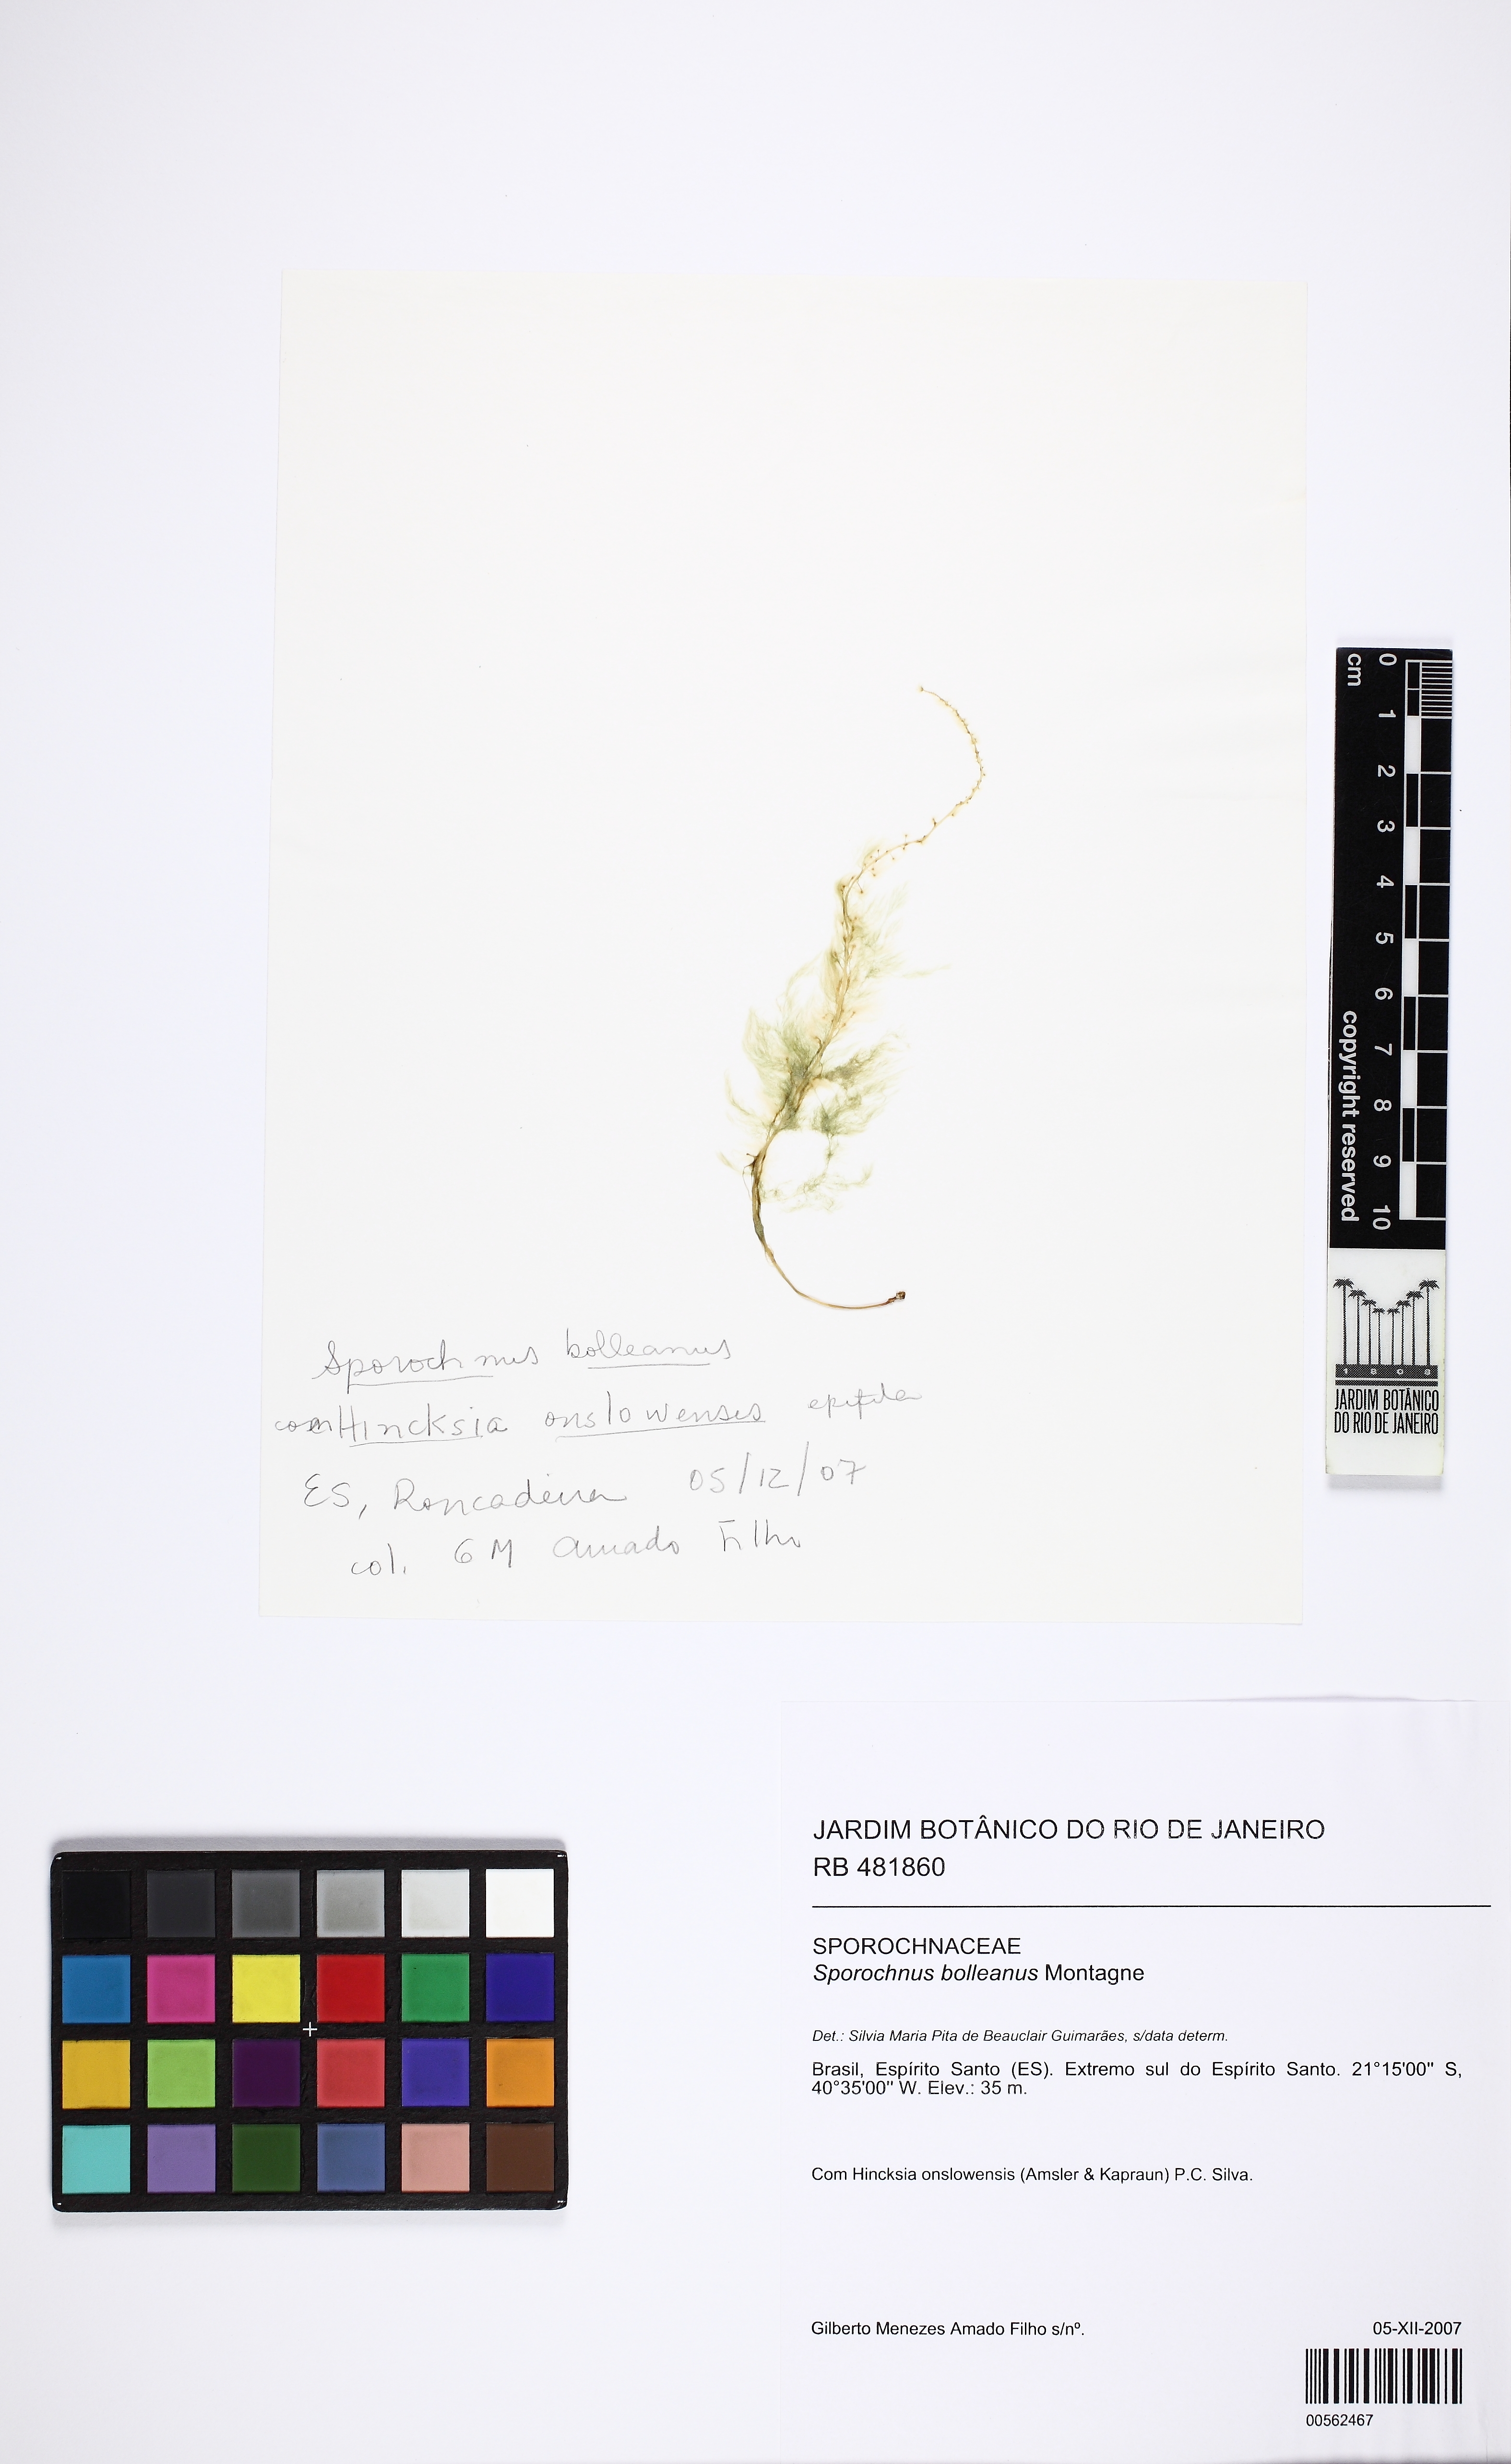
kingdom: Chromista
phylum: Ochrophyta
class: Phaeophyceae
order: Sporochnales
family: Sporochnaceae
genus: Sporochnus
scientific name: Sporochnus bolleanus
